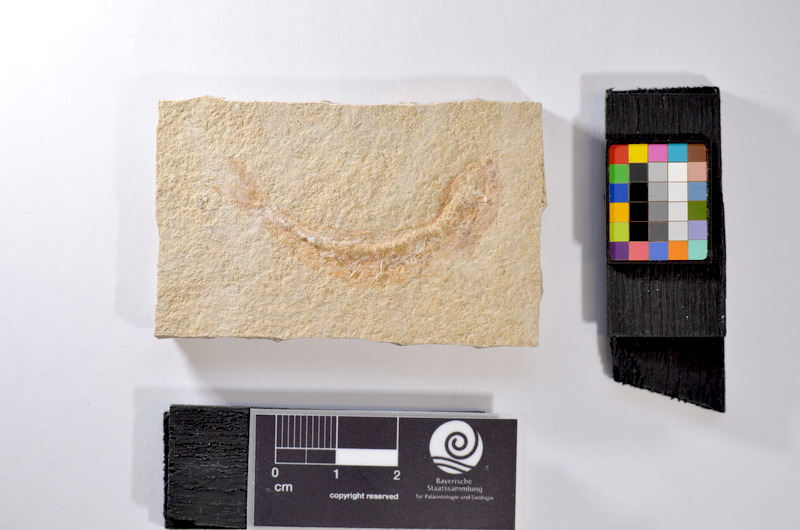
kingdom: Animalia
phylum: Chordata
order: Salmoniformes
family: Orthogonikleithridae
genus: Leptolepides
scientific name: Leptolepides sprattiformis
